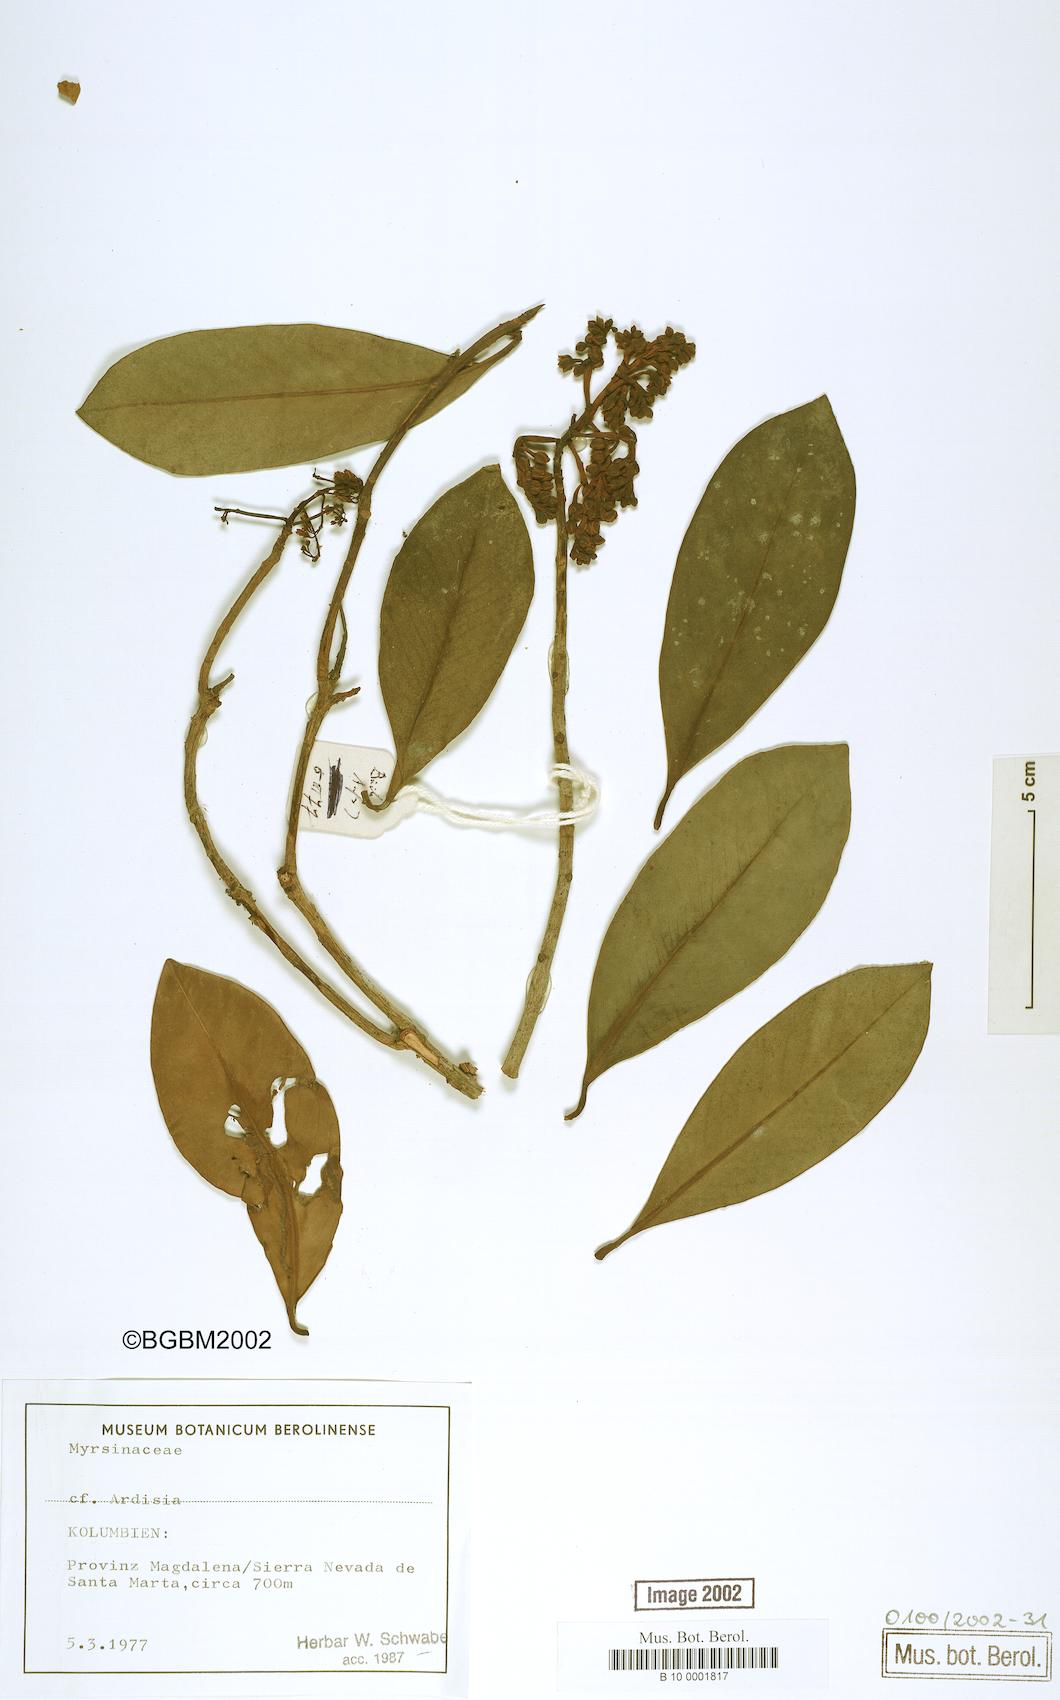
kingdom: Plantae
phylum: Tracheophyta
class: Magnoliopsida
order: Ericales
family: Primulaceae
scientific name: Primulaceae
